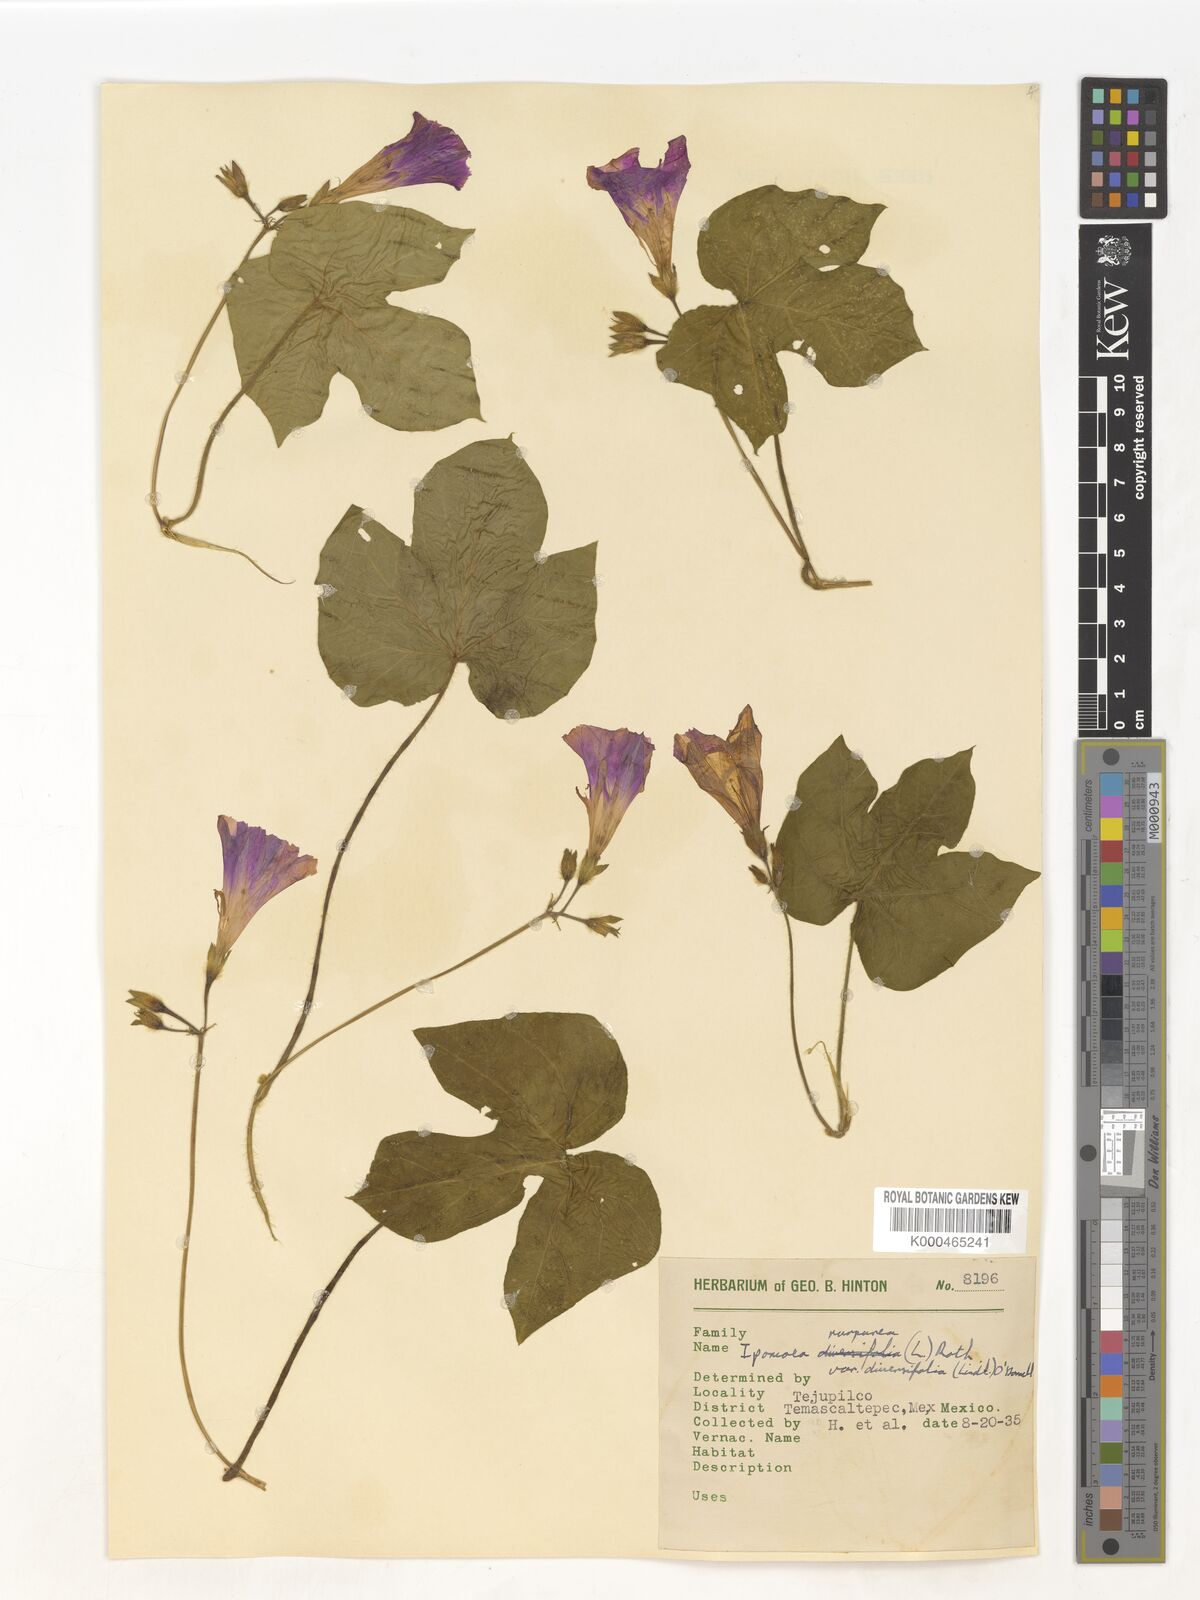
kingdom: Plantae
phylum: Tracheophyta
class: Magnoliopsida
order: Solanales
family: Convolvulaceae
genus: Ipomoea
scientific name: Ipomoea purpurea
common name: Common morning-glory
